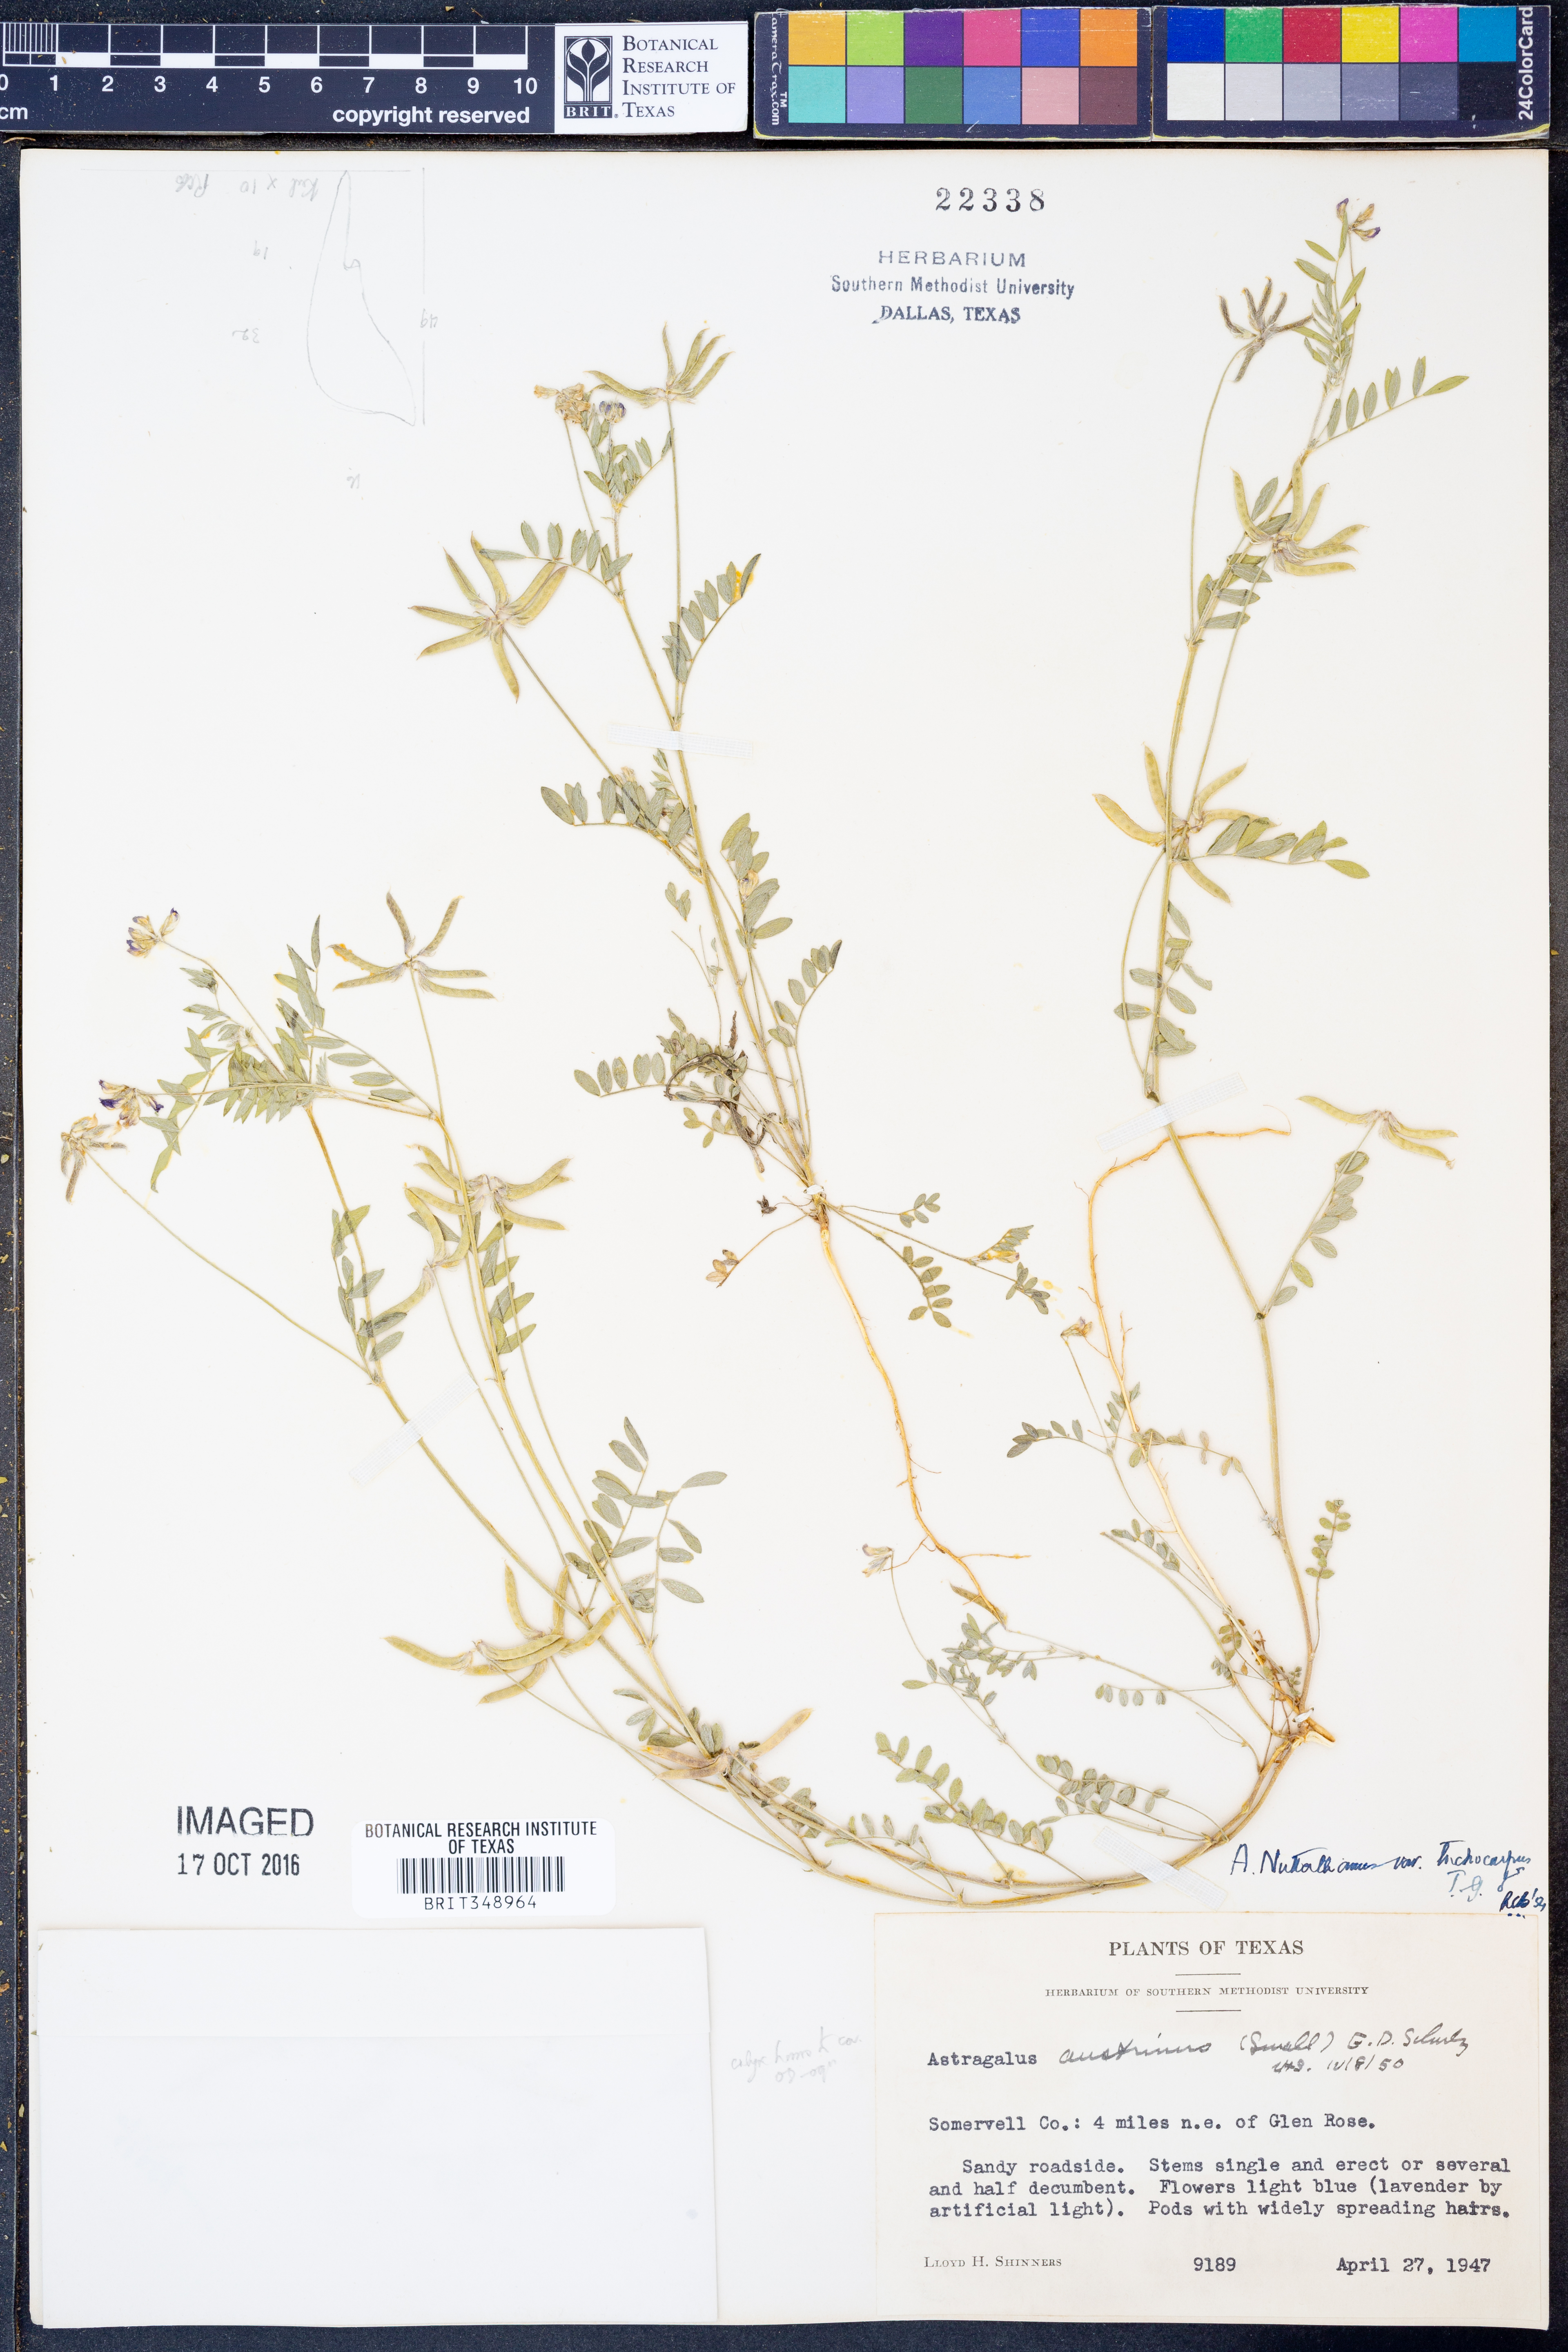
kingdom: Plantae
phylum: Tracheophyta
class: Magnoliopsida
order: Fabales
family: Fabaceae
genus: Astragalus
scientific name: Astragalus nuttallianus
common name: Smallflowered milkvetch
